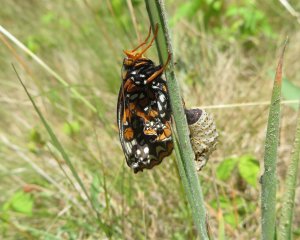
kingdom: Animalia
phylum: Arthropoda
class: Insecta
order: Lepidoptera
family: Nymphalidae
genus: Euphydryas
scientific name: Euphydryas phaeton
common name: Baltimore Checkerspot
